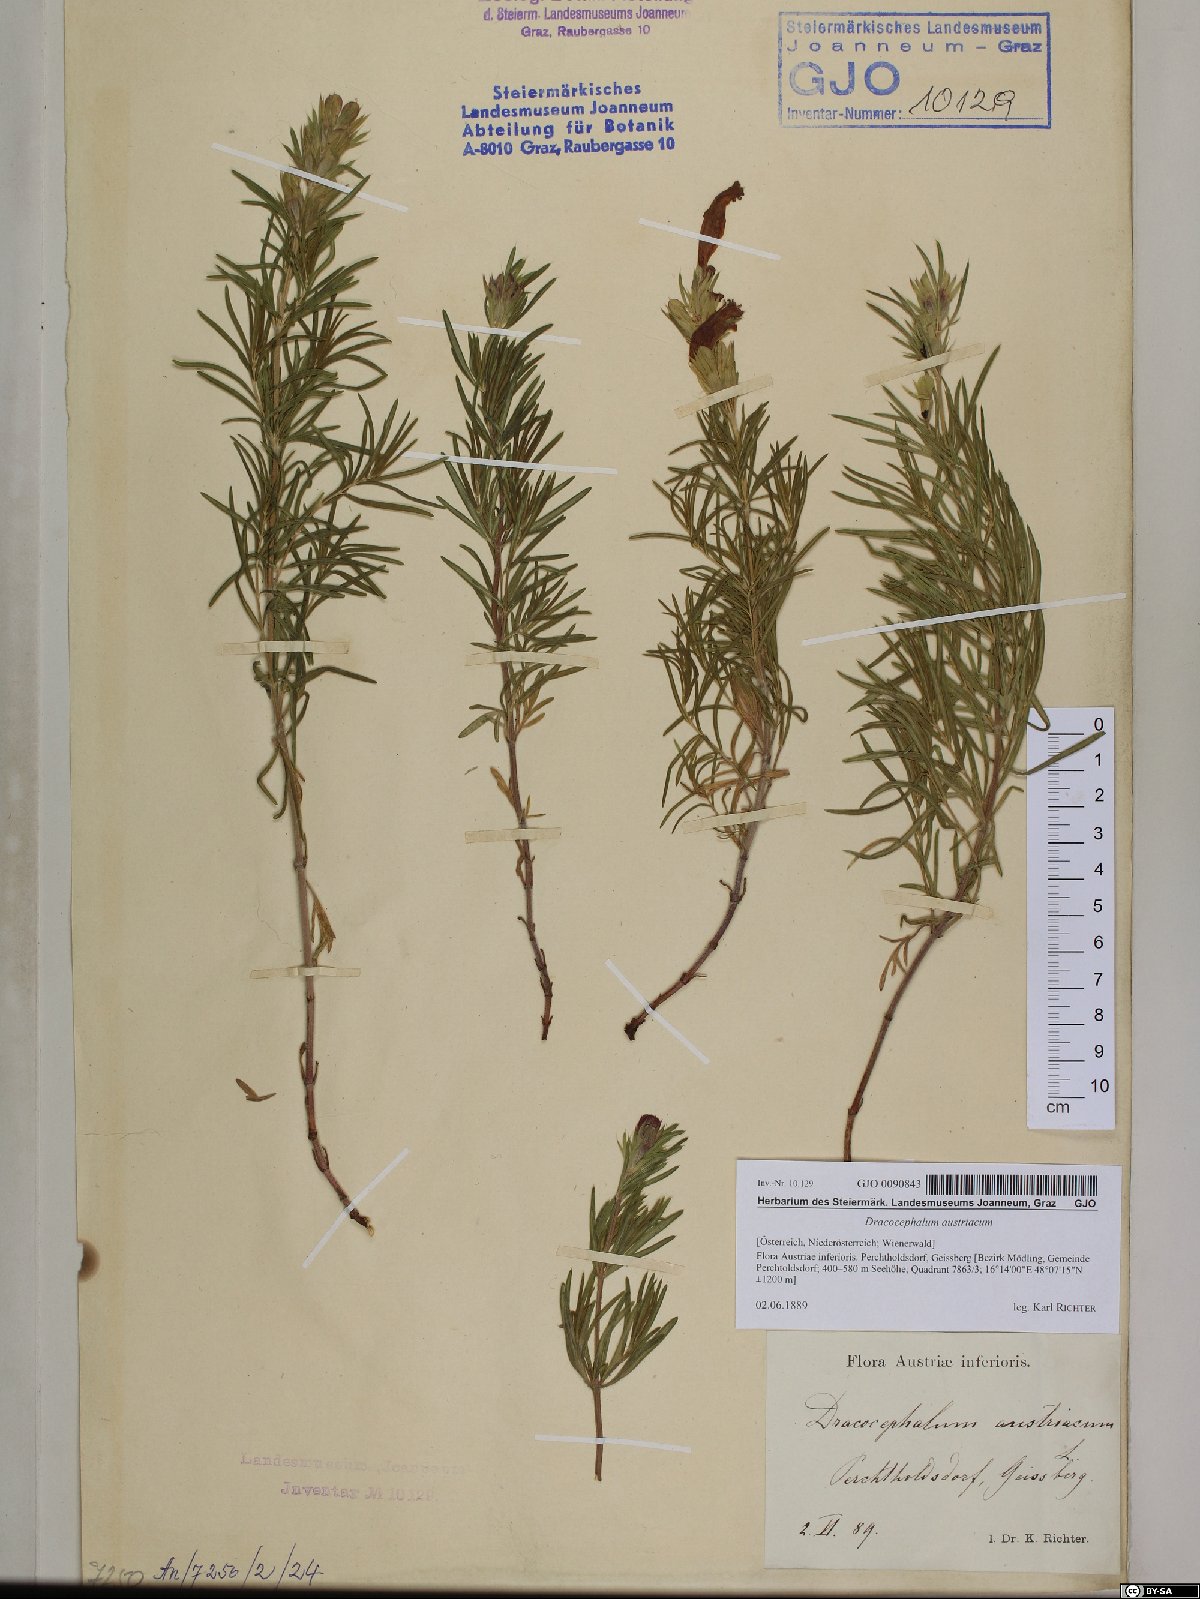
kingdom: Plantae
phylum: Tracheophyta
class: Magnoliopsida
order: Lamiales
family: Lamiaceae
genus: Dracocephalum
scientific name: Dracocephalum austriacum
